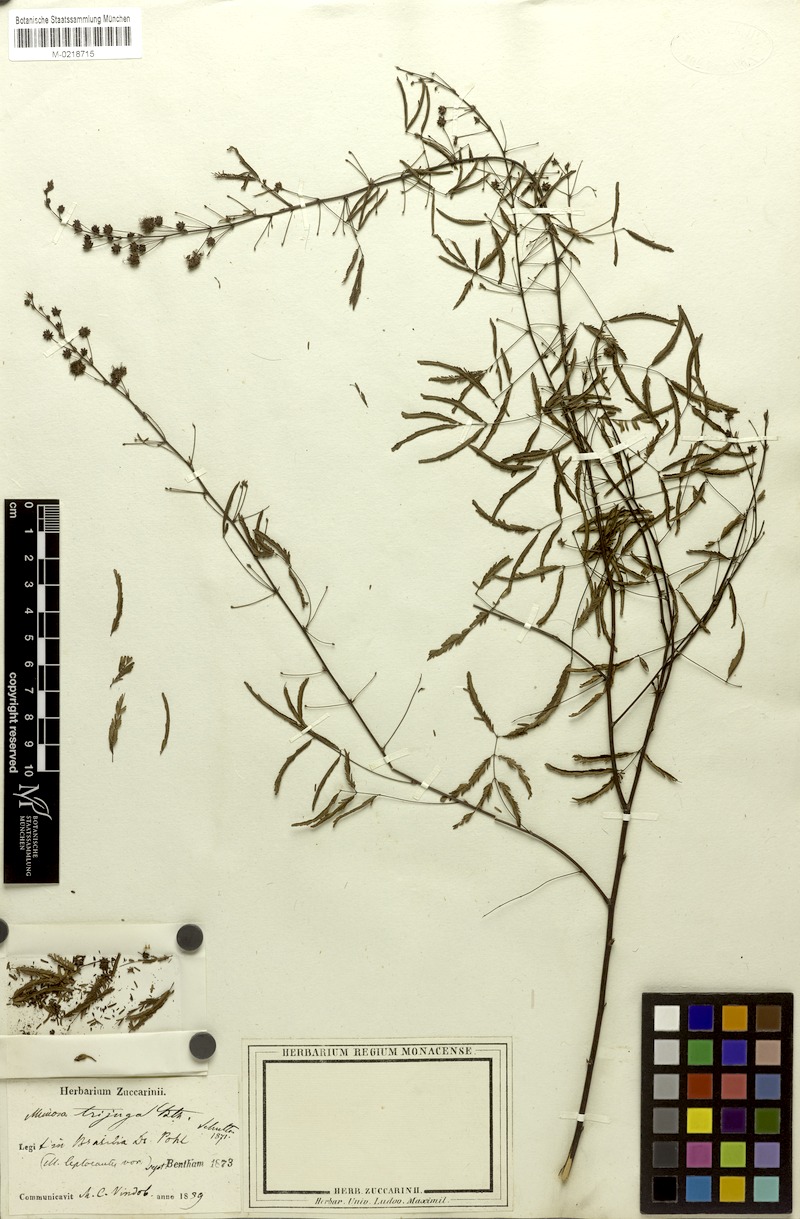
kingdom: Plantae
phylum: Tracheophyta
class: Magnoliopsida
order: Fabales
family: Fabaceae
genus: Mimosa
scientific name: Mimosa somnians
